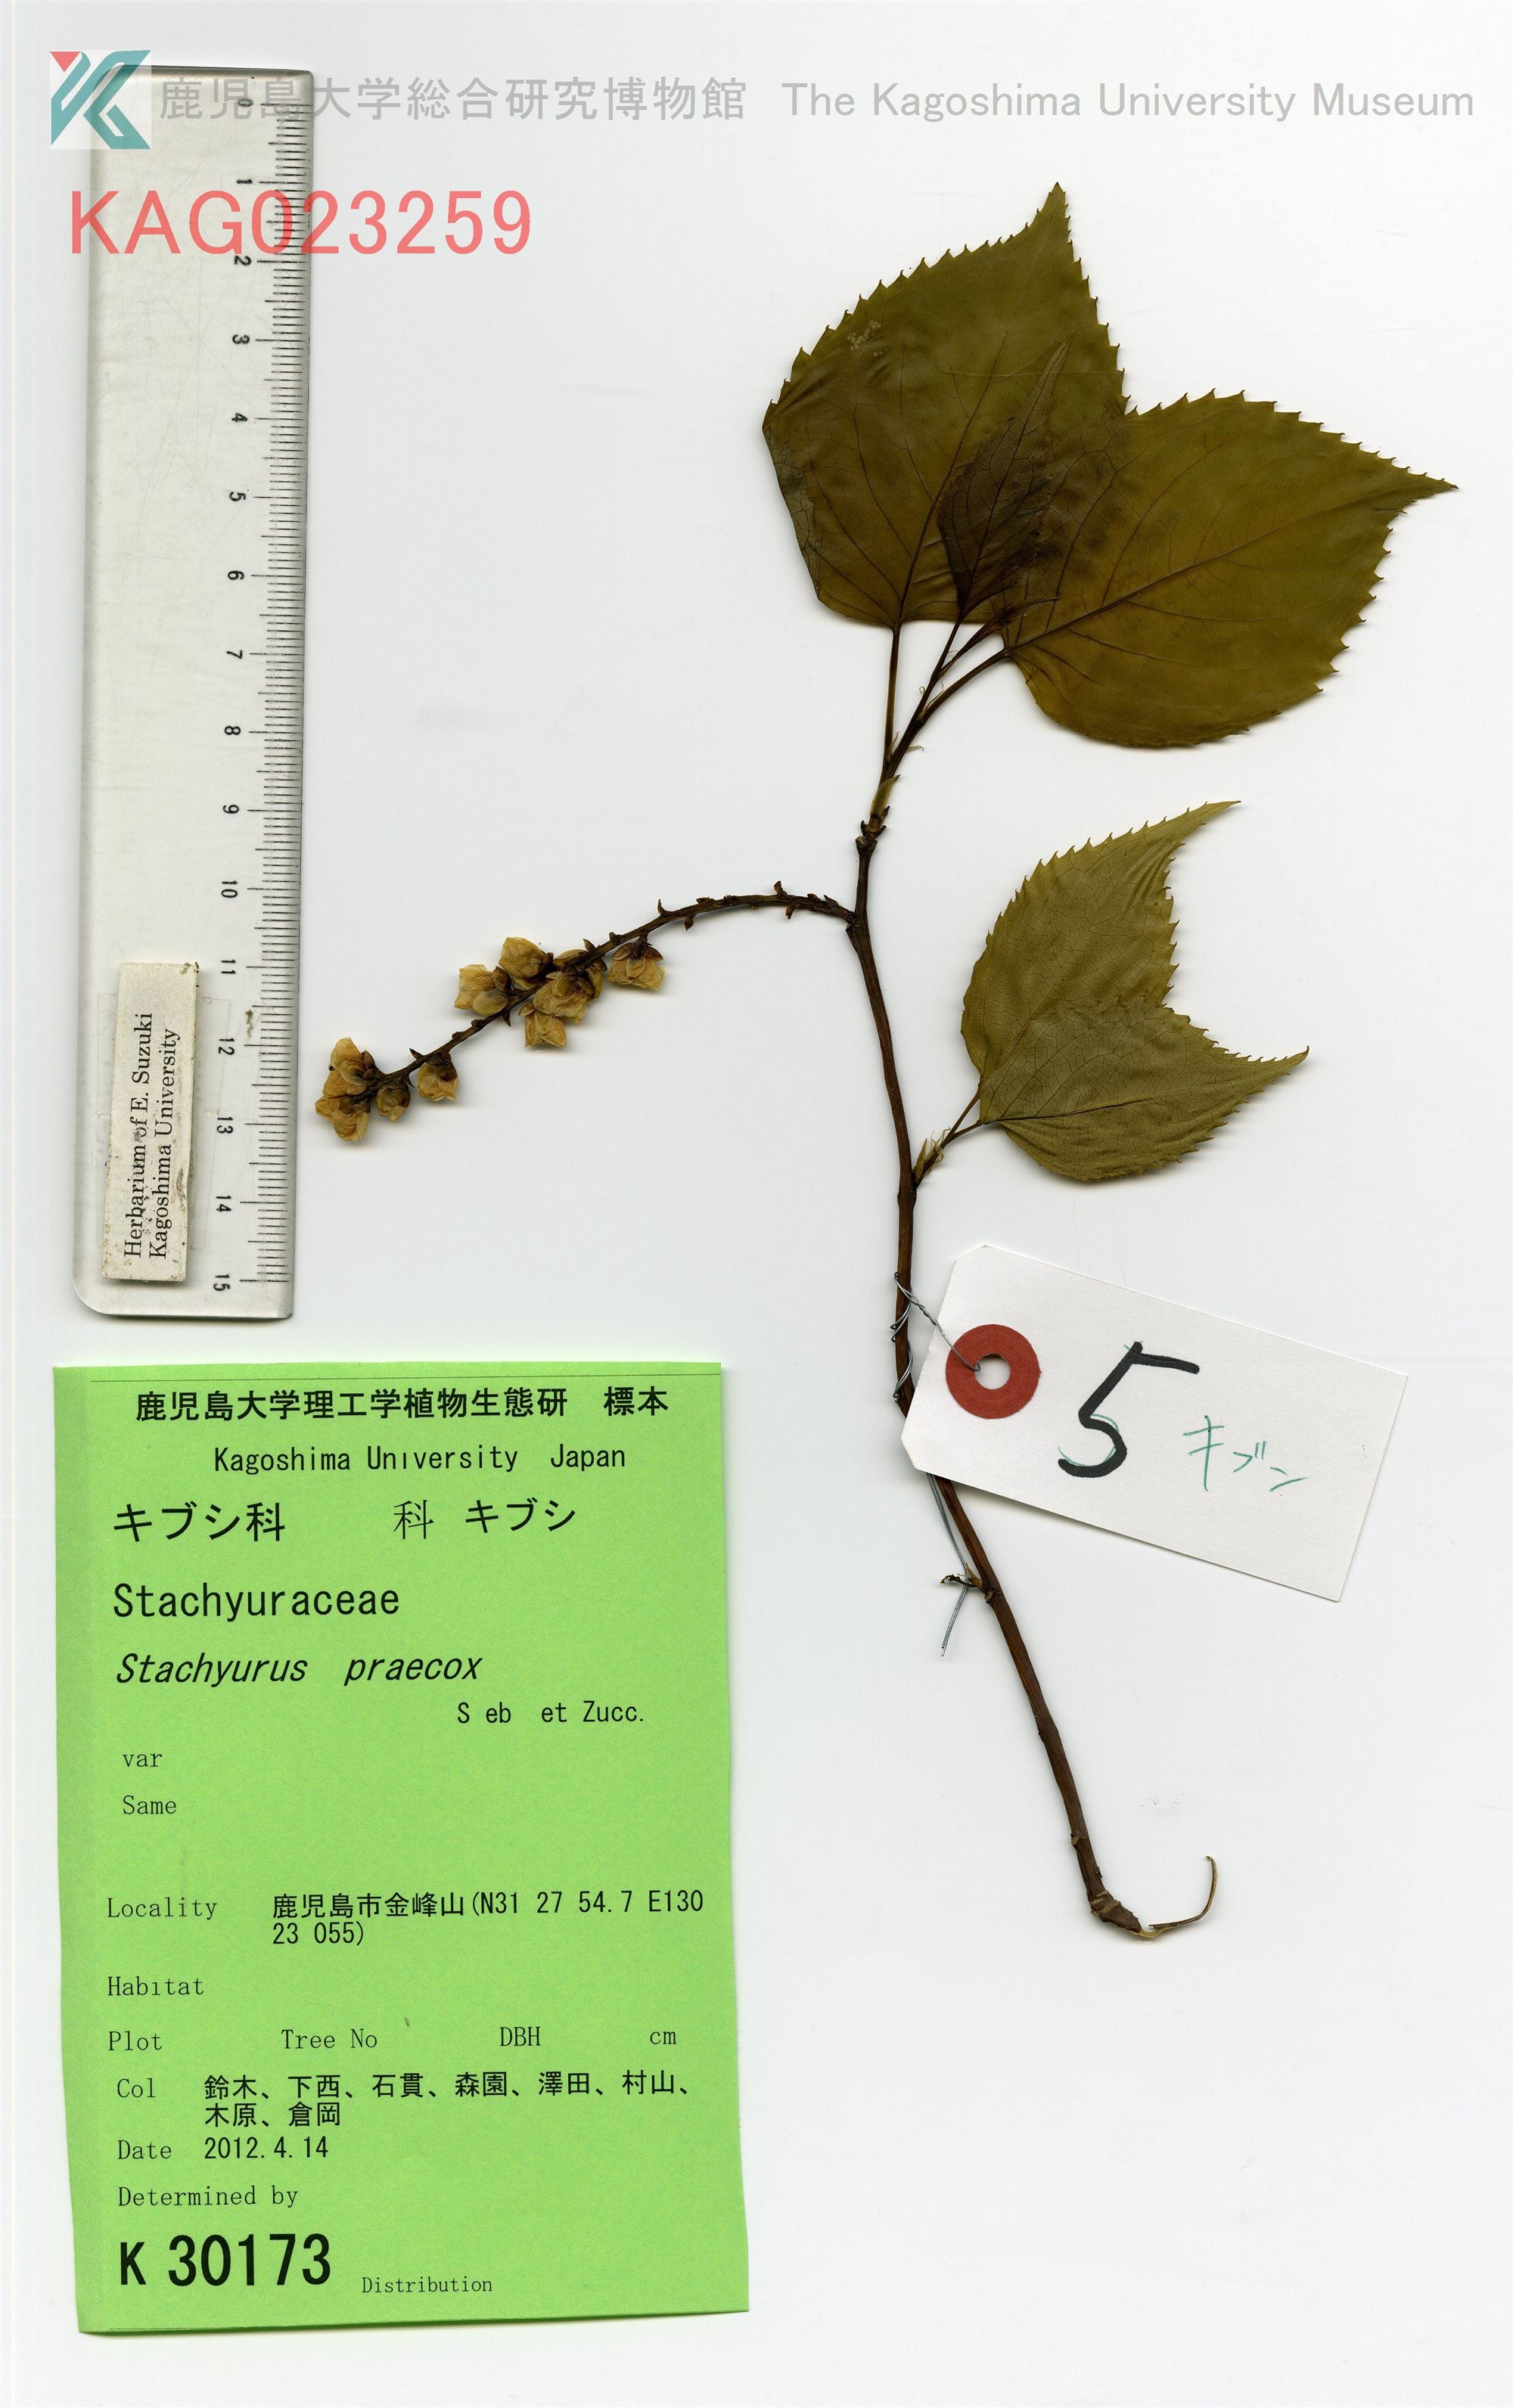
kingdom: Plantae
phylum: Tracheophyta
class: Magnoliopsida
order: Crossosomatales
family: Stachyuraceae
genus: Stachyurus
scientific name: Stachyurus praecox
